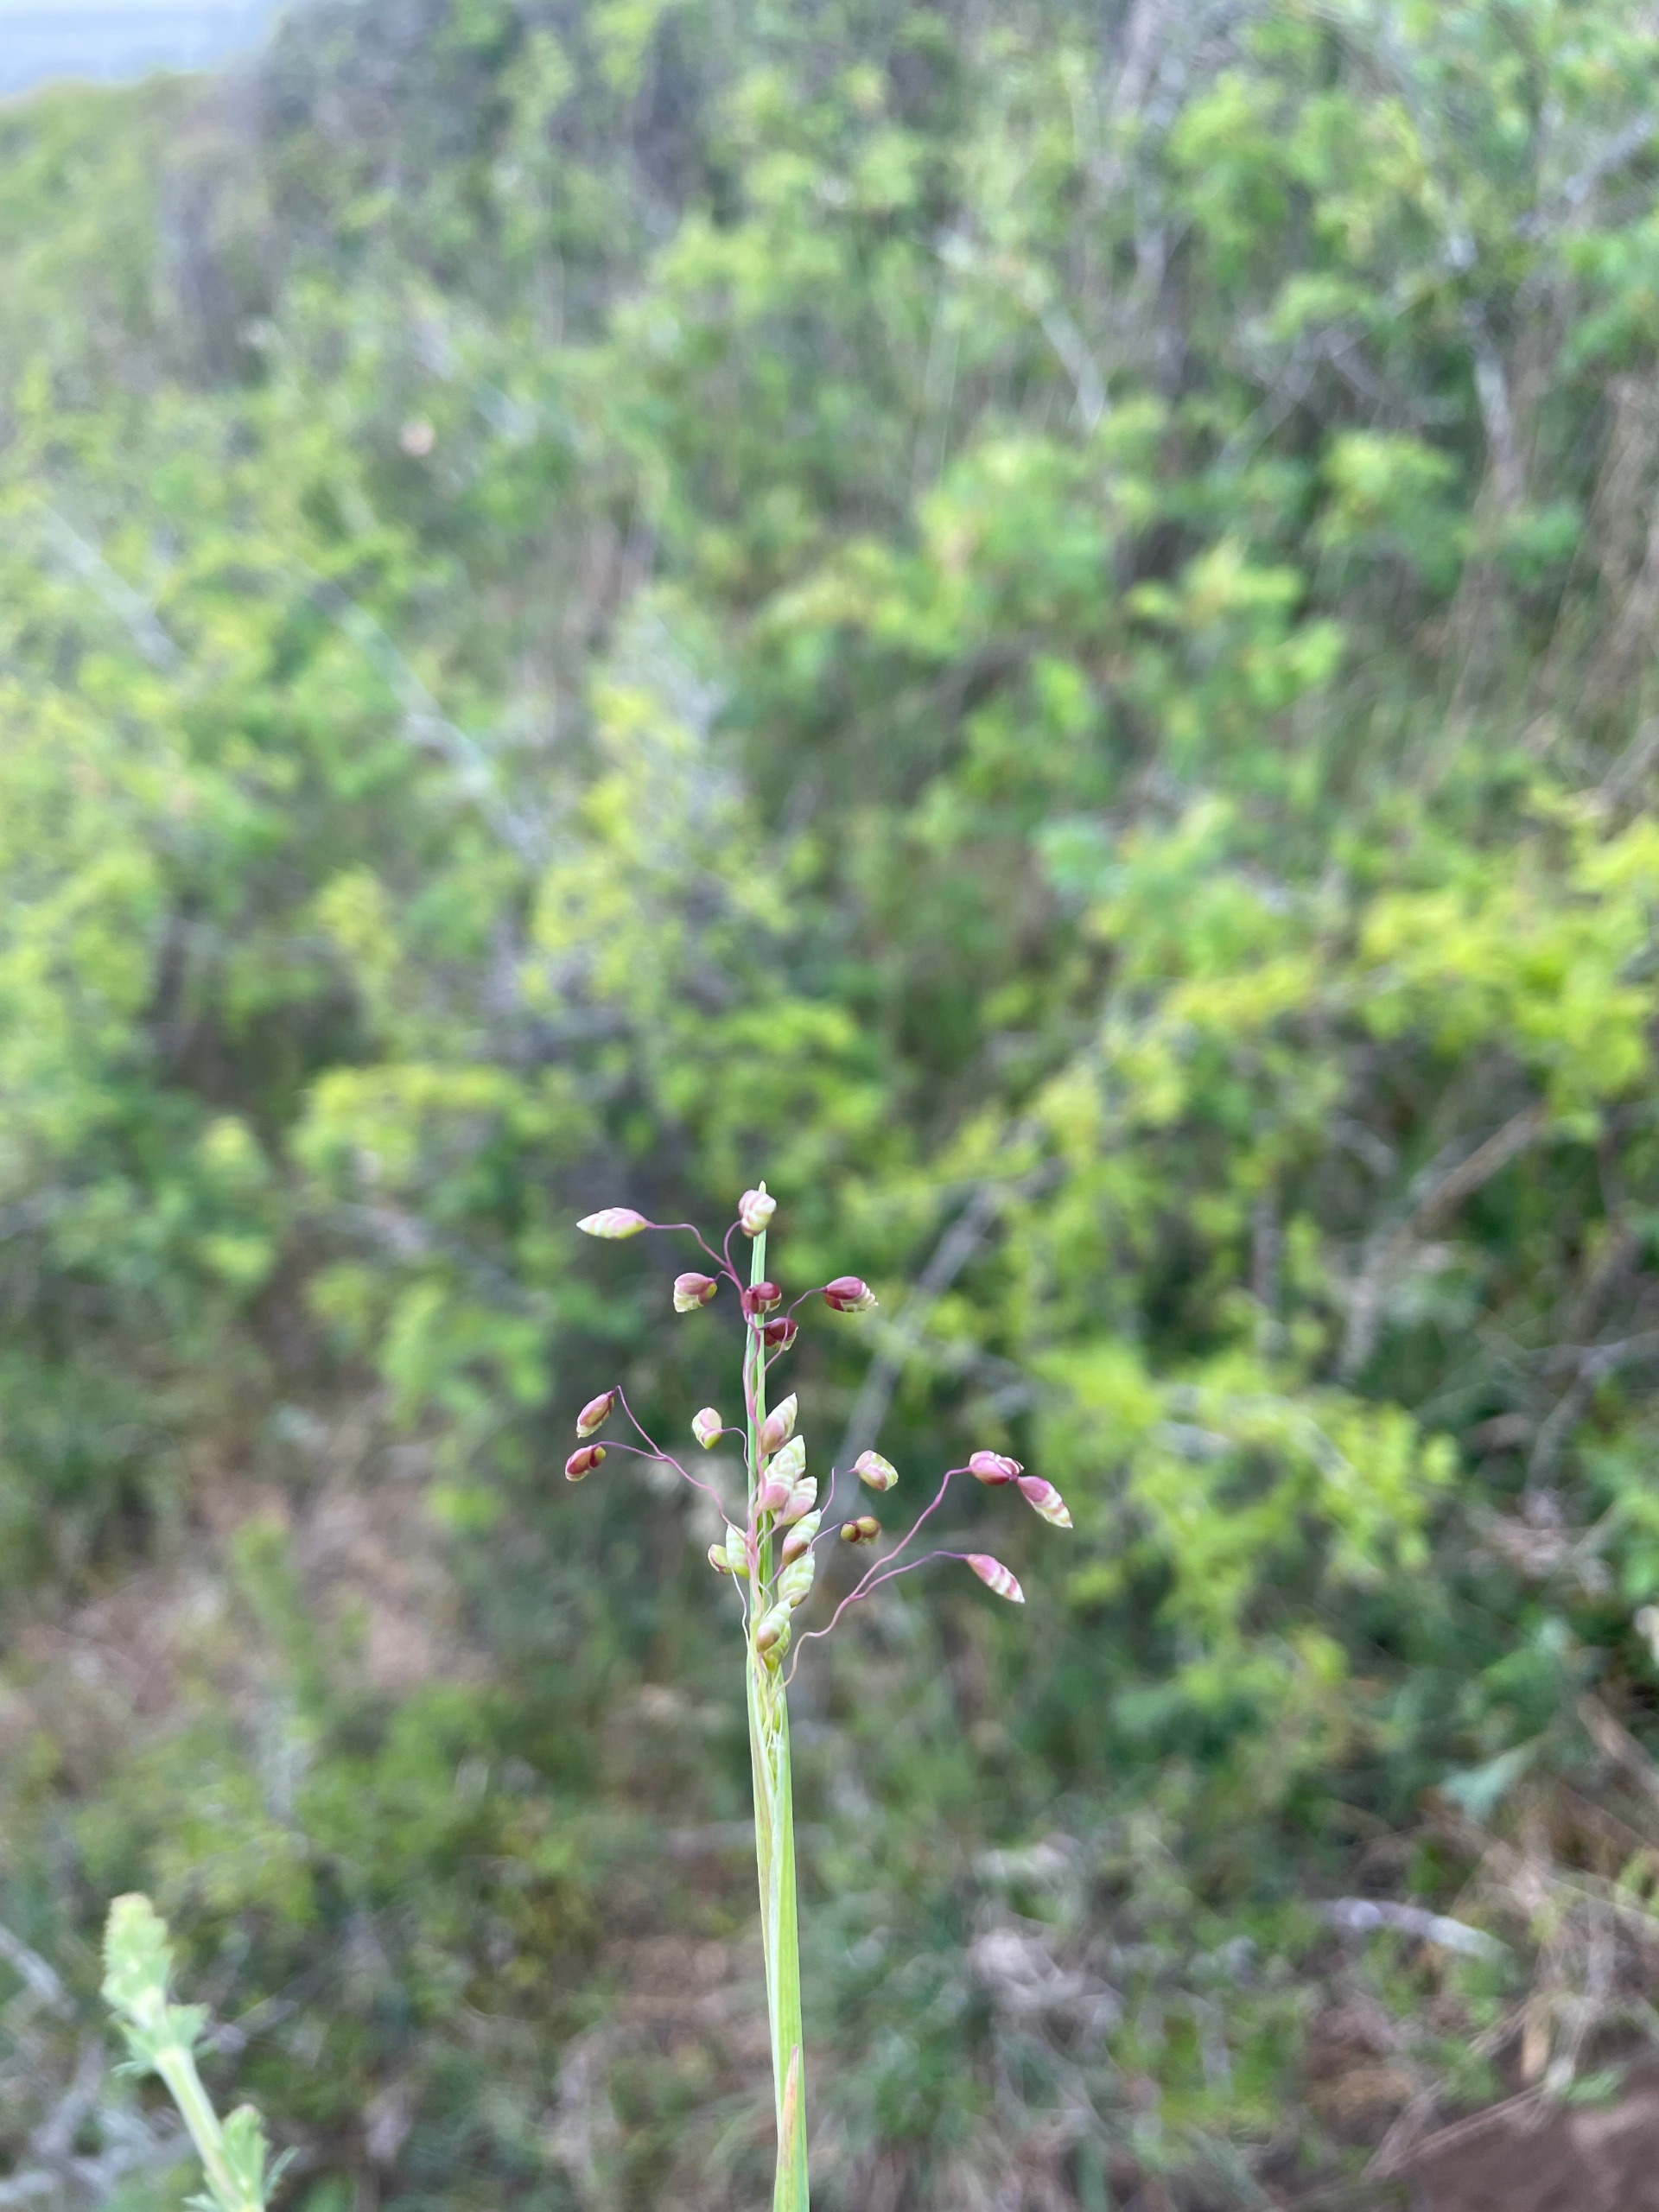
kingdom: Plantae
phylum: Tracheophyta
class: Liliopsida
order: Poales
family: Poaceae
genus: Briza
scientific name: Briza media
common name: Hjertegræs
